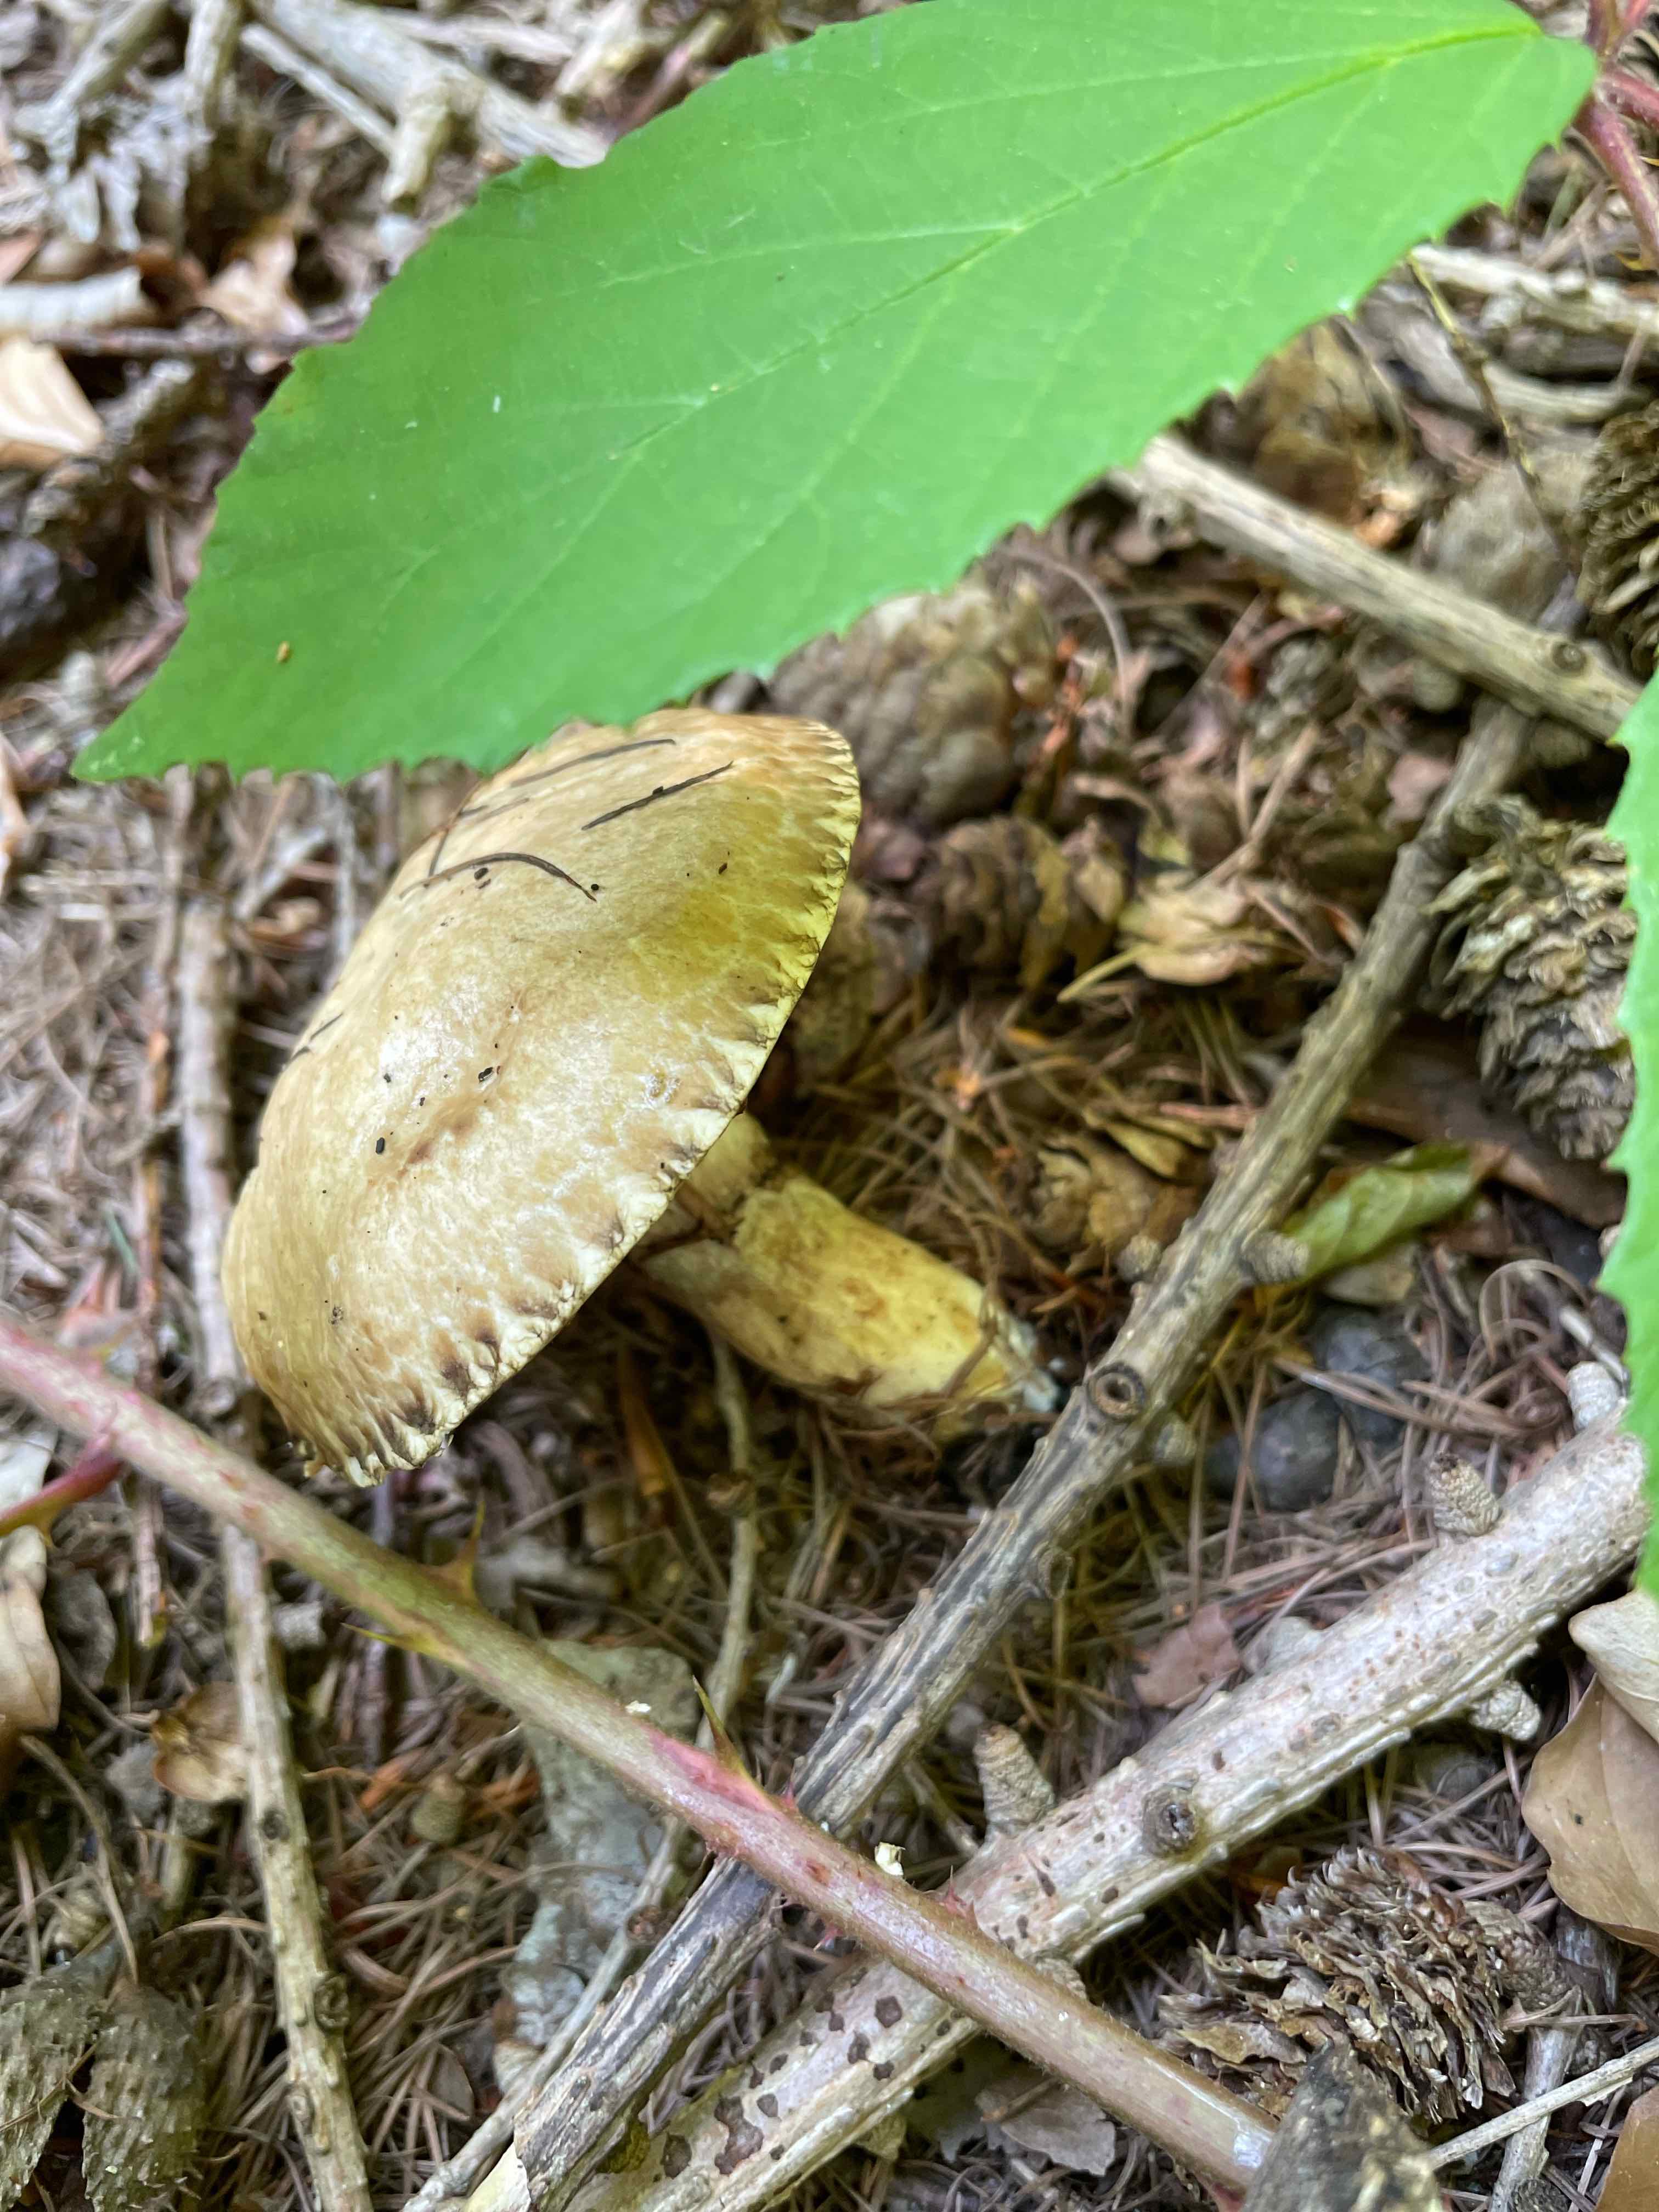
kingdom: Fungi
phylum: Basidiomycota
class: Agaricomycetes
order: Boletales
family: Suillaceae
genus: Suillus
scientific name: Suillus grevillei
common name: lærke-slimrørhat
